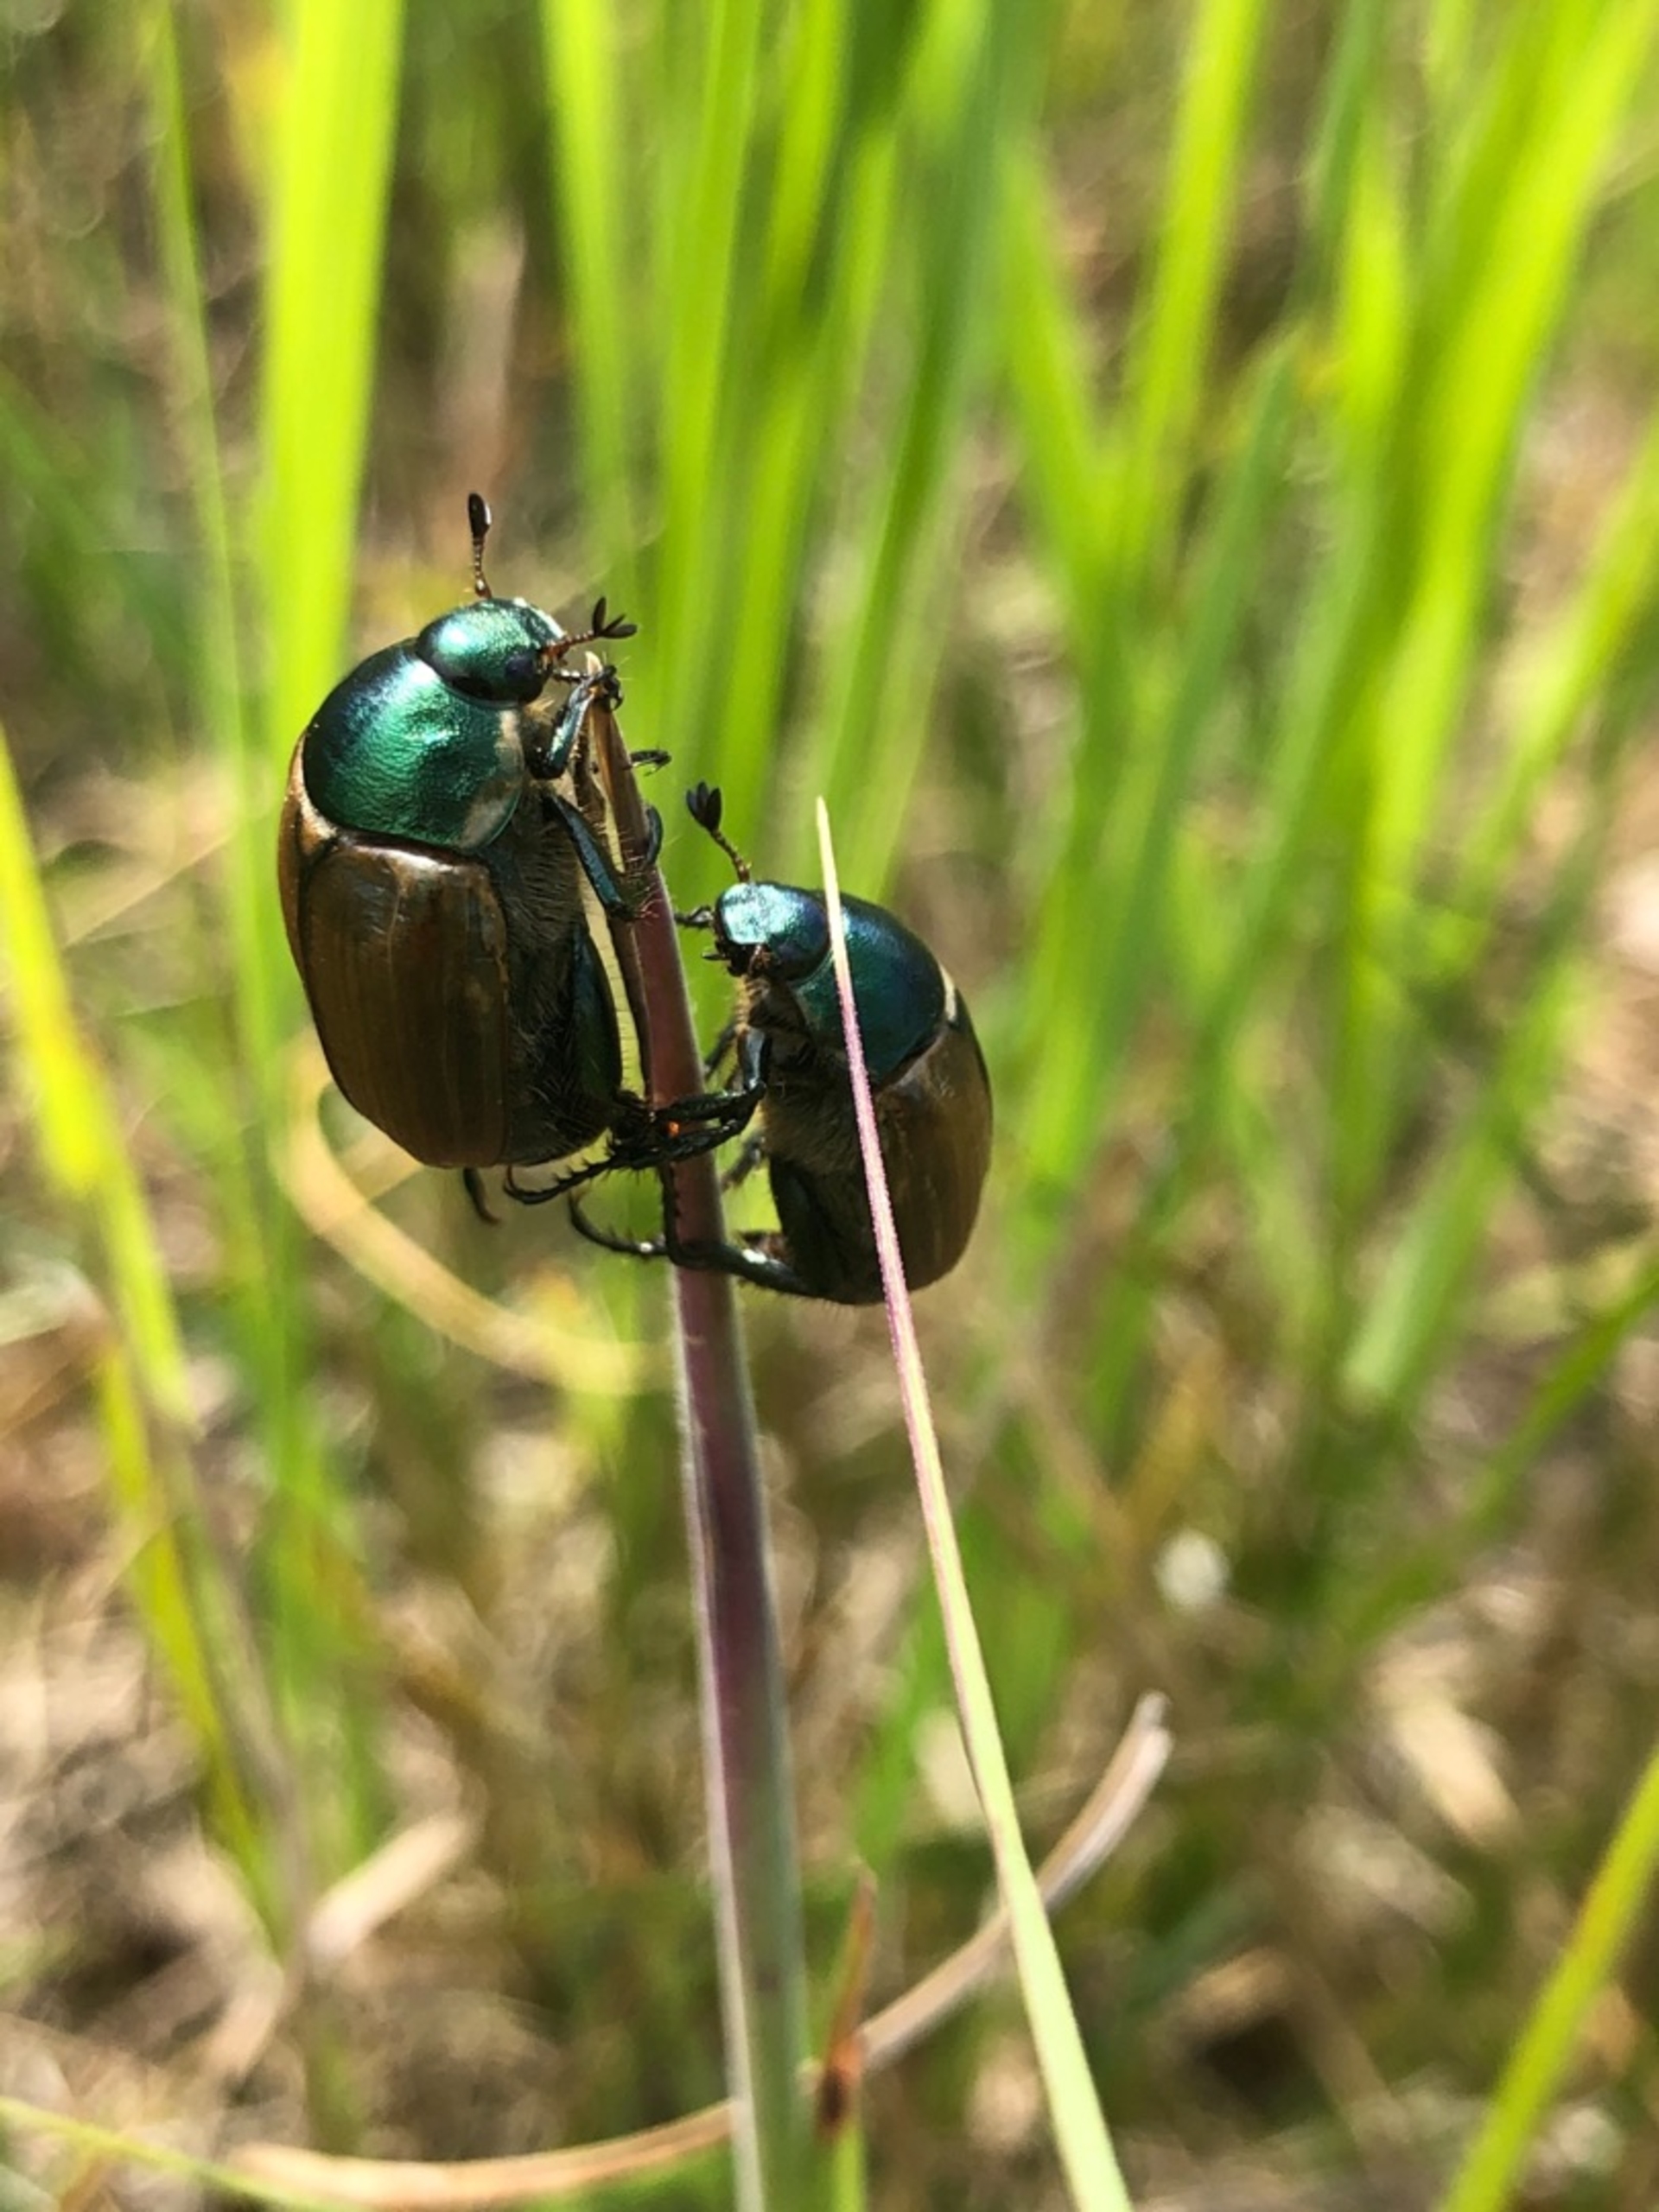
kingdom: Animalia
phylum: Arthropoda
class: Insecta
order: Coleoptera
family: Scarabaeidae
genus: Phyllopertha
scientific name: Phyllopertha horticola
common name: Gåsebille
